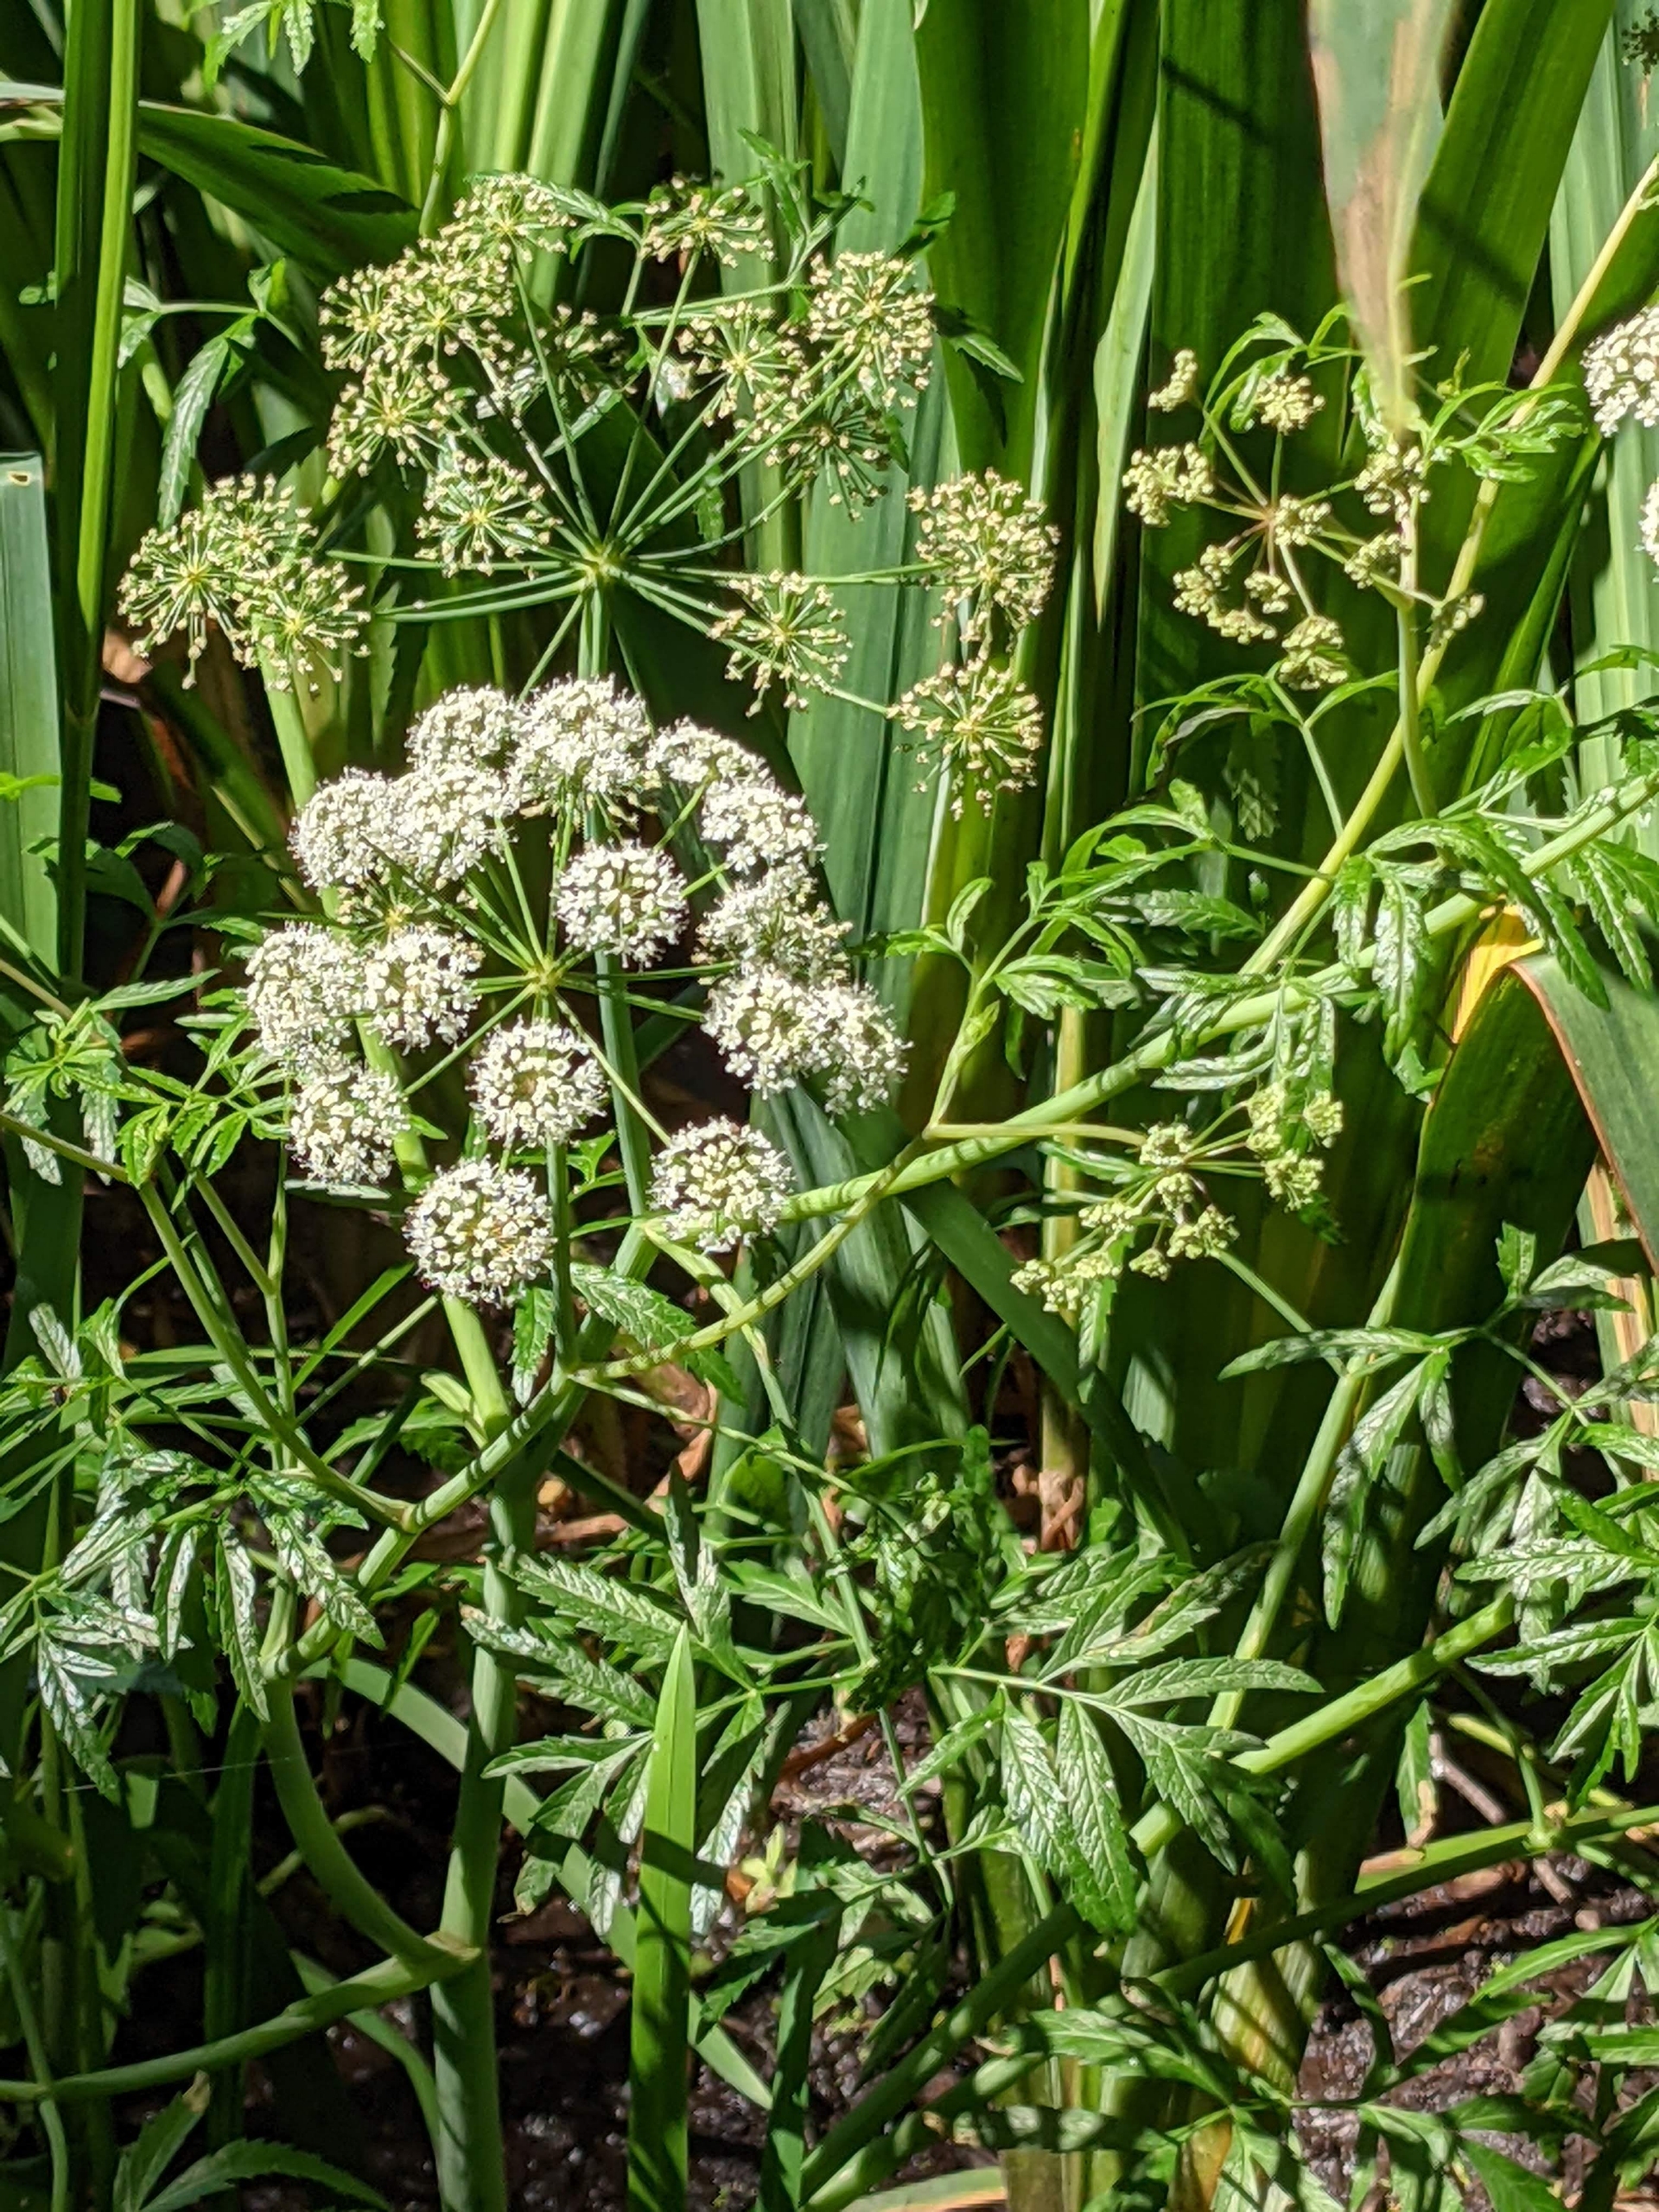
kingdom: Plantae
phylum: Tracheophyta
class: Magnoliopsida
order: Apiales
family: Apiaceae
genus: Cicuta
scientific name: Cicuta virosa
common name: Gifttyde
